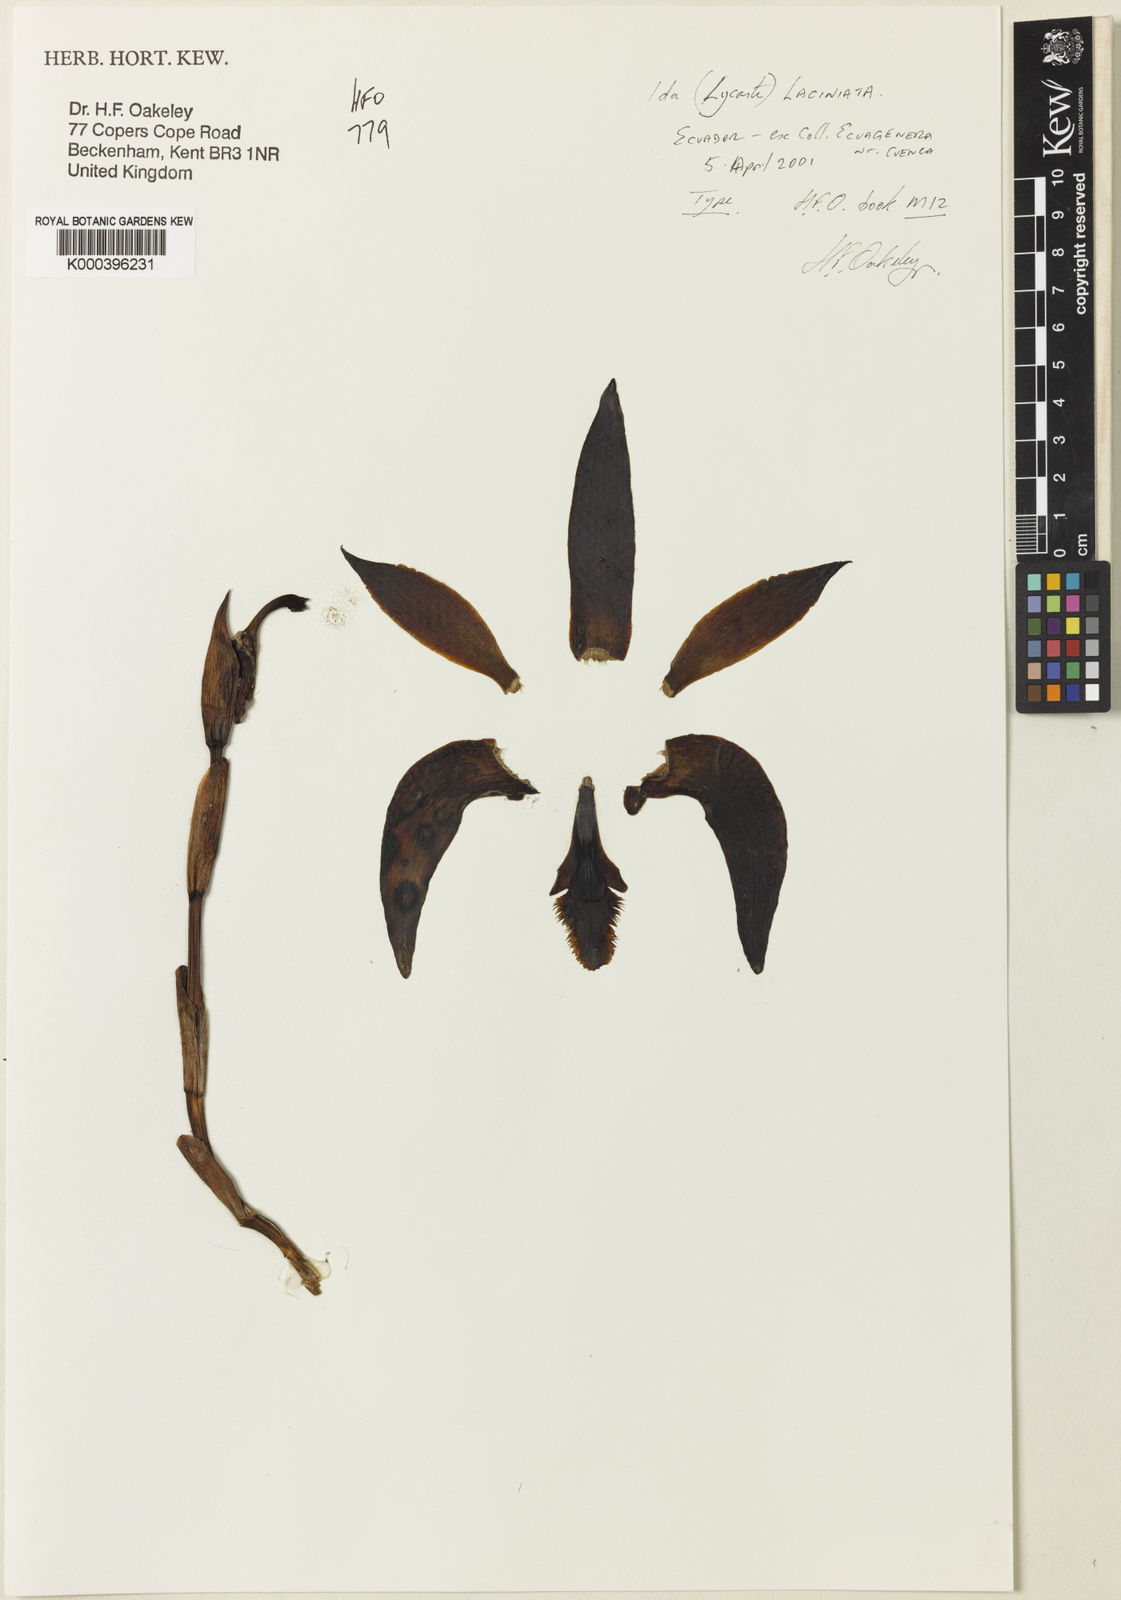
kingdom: Plantae
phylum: Tracheophyta
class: Liliopsida
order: Asparagales
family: Orchidaceae
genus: Ida
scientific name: Ida laciniata
